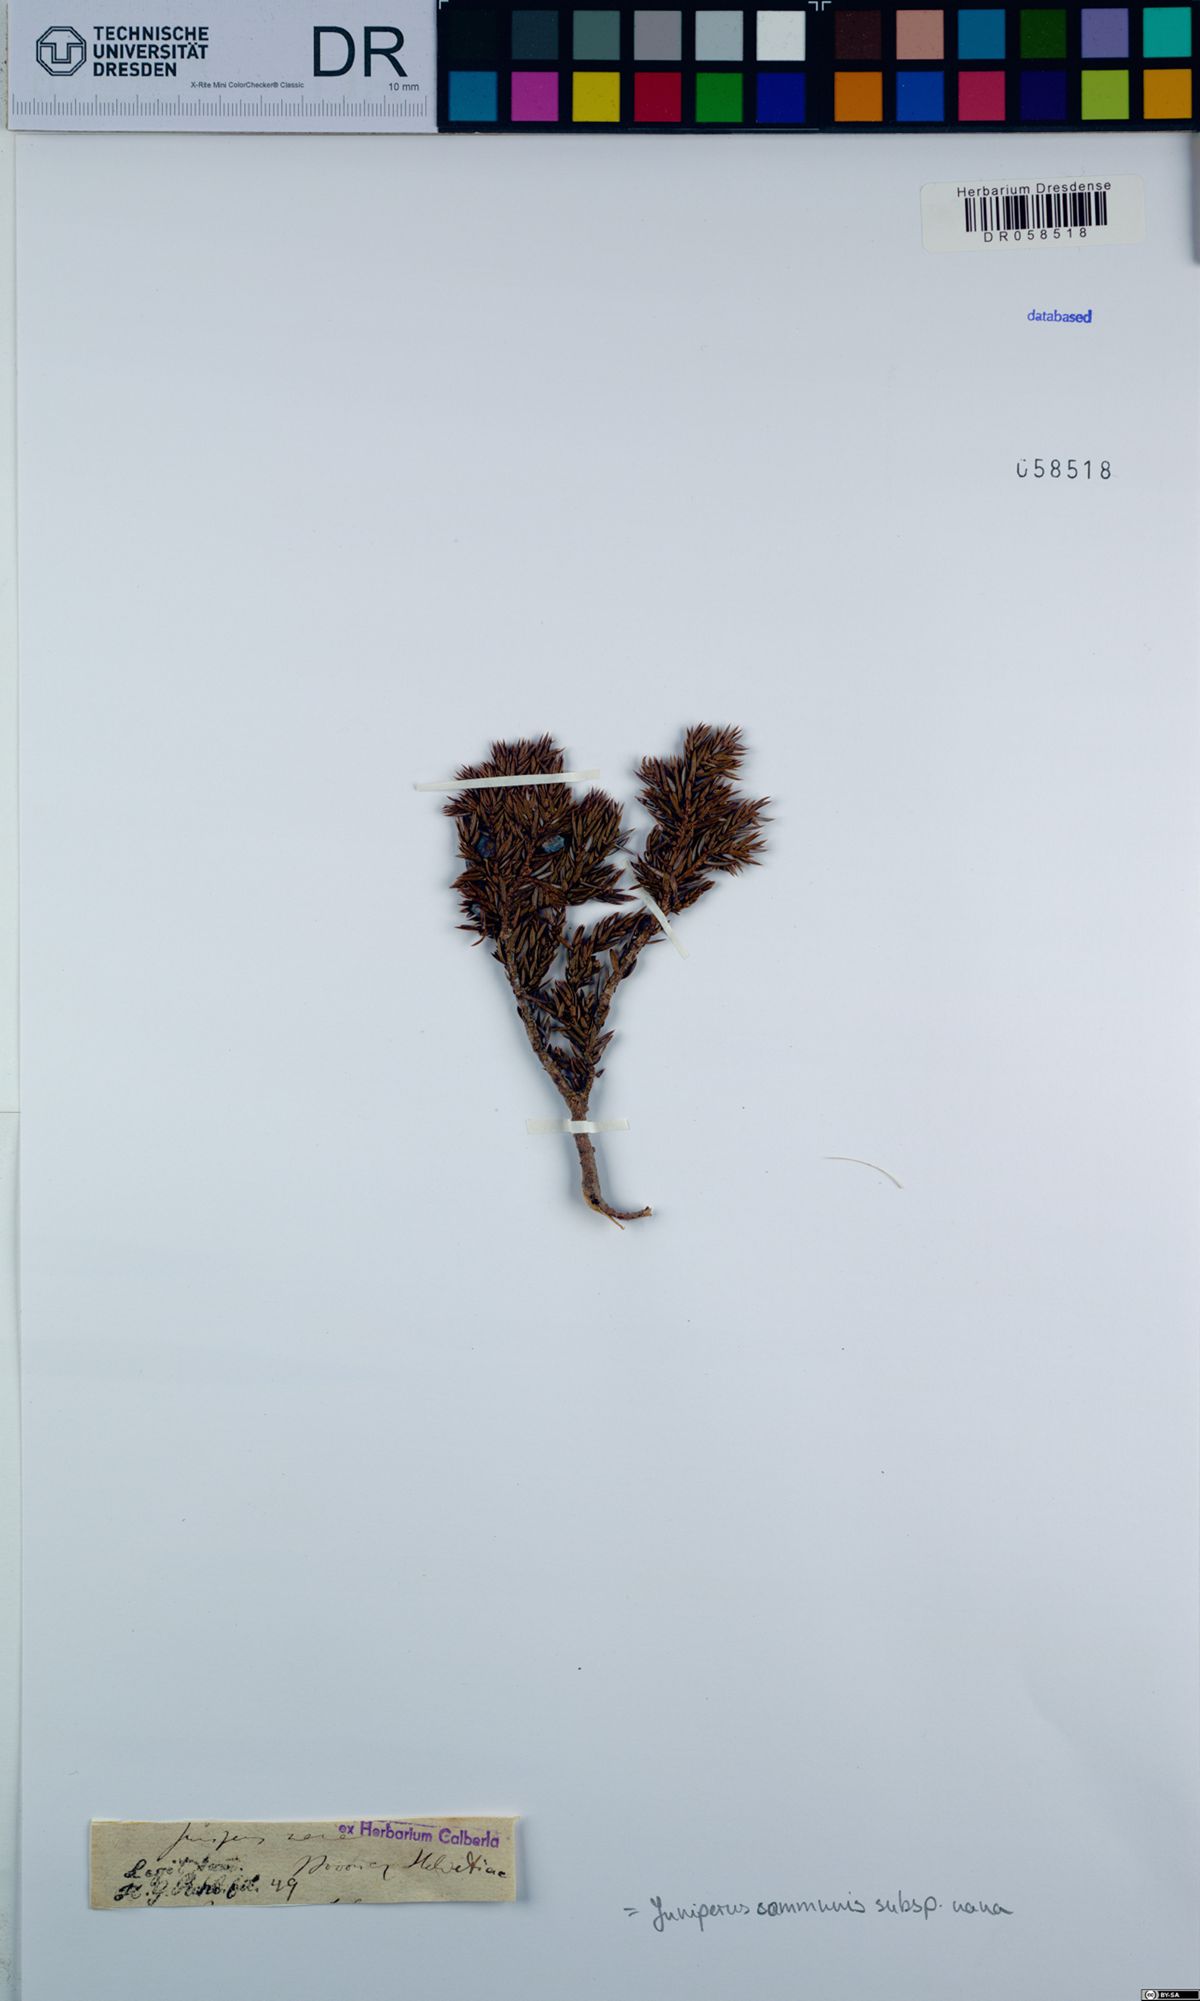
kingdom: Plantae
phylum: Tracheophyta
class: Pinopsida
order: Pinales
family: Cupressaceae
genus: Juniperus
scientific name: Juniperus communis
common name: Common juniper
